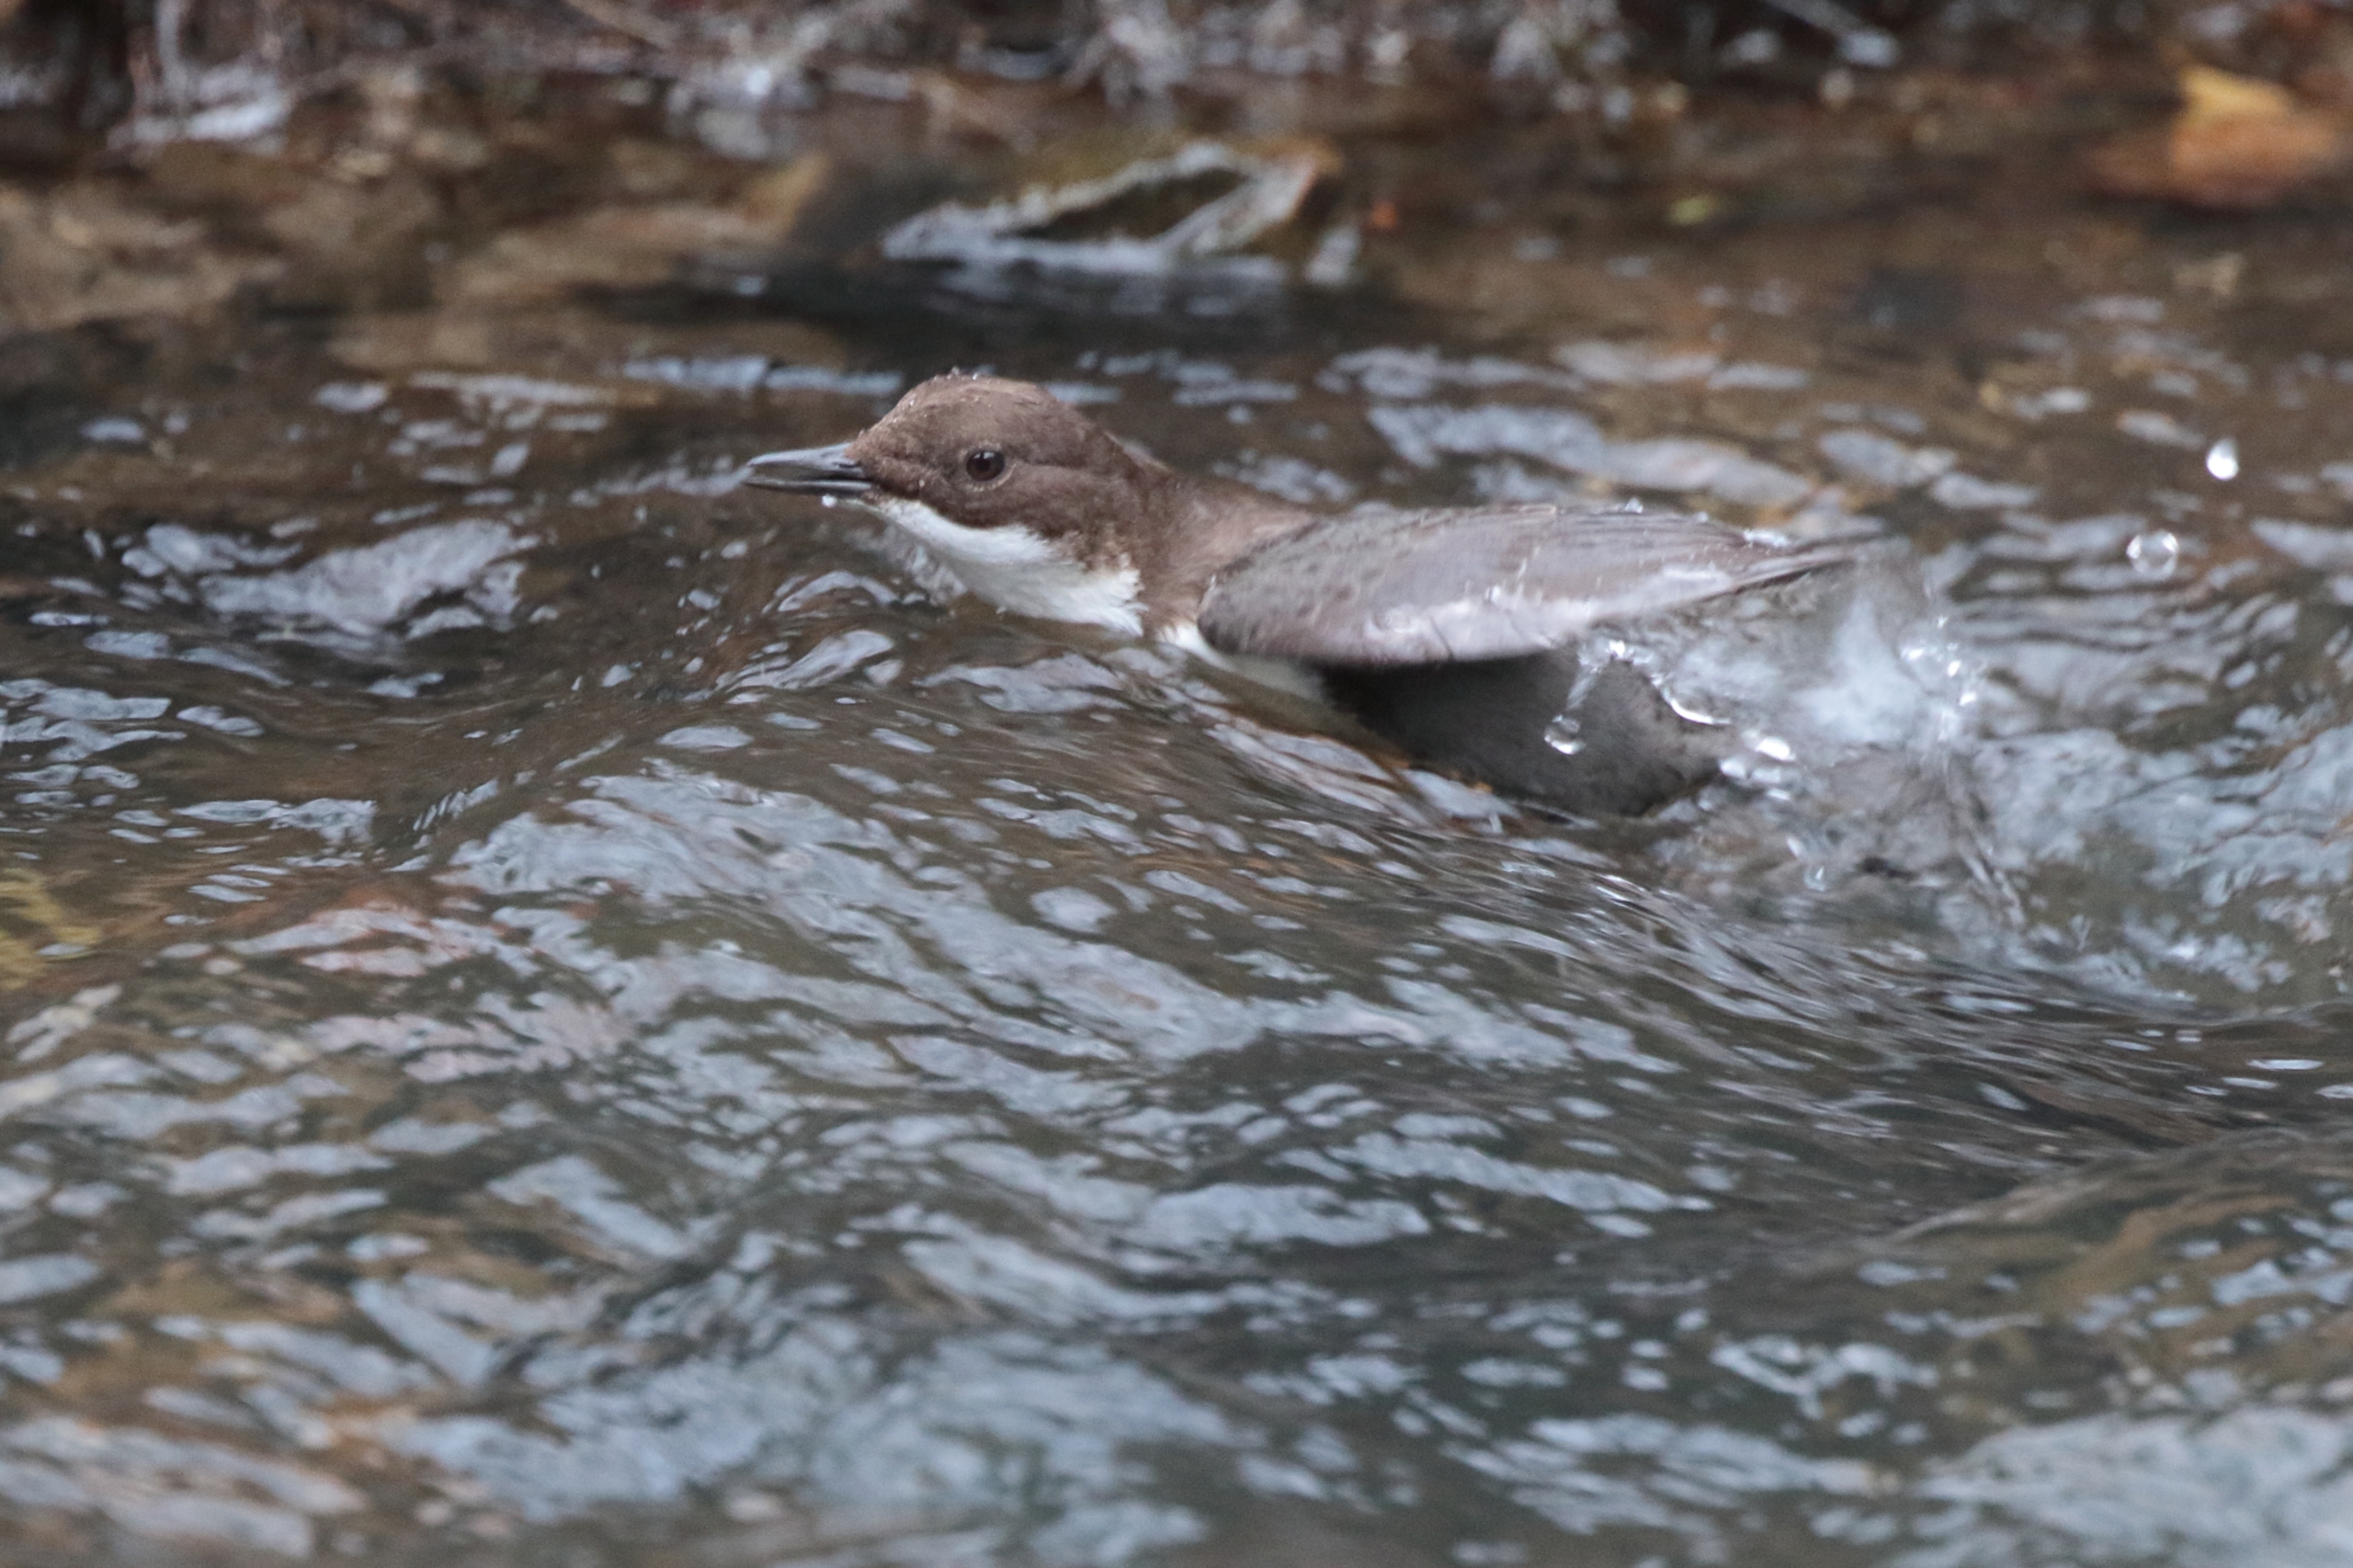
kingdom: Animalia
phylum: Chordata
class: Aves
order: Passeriformes
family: Cinclidae
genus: Cinclus
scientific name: Cinclus cinclus
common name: Vandstær
